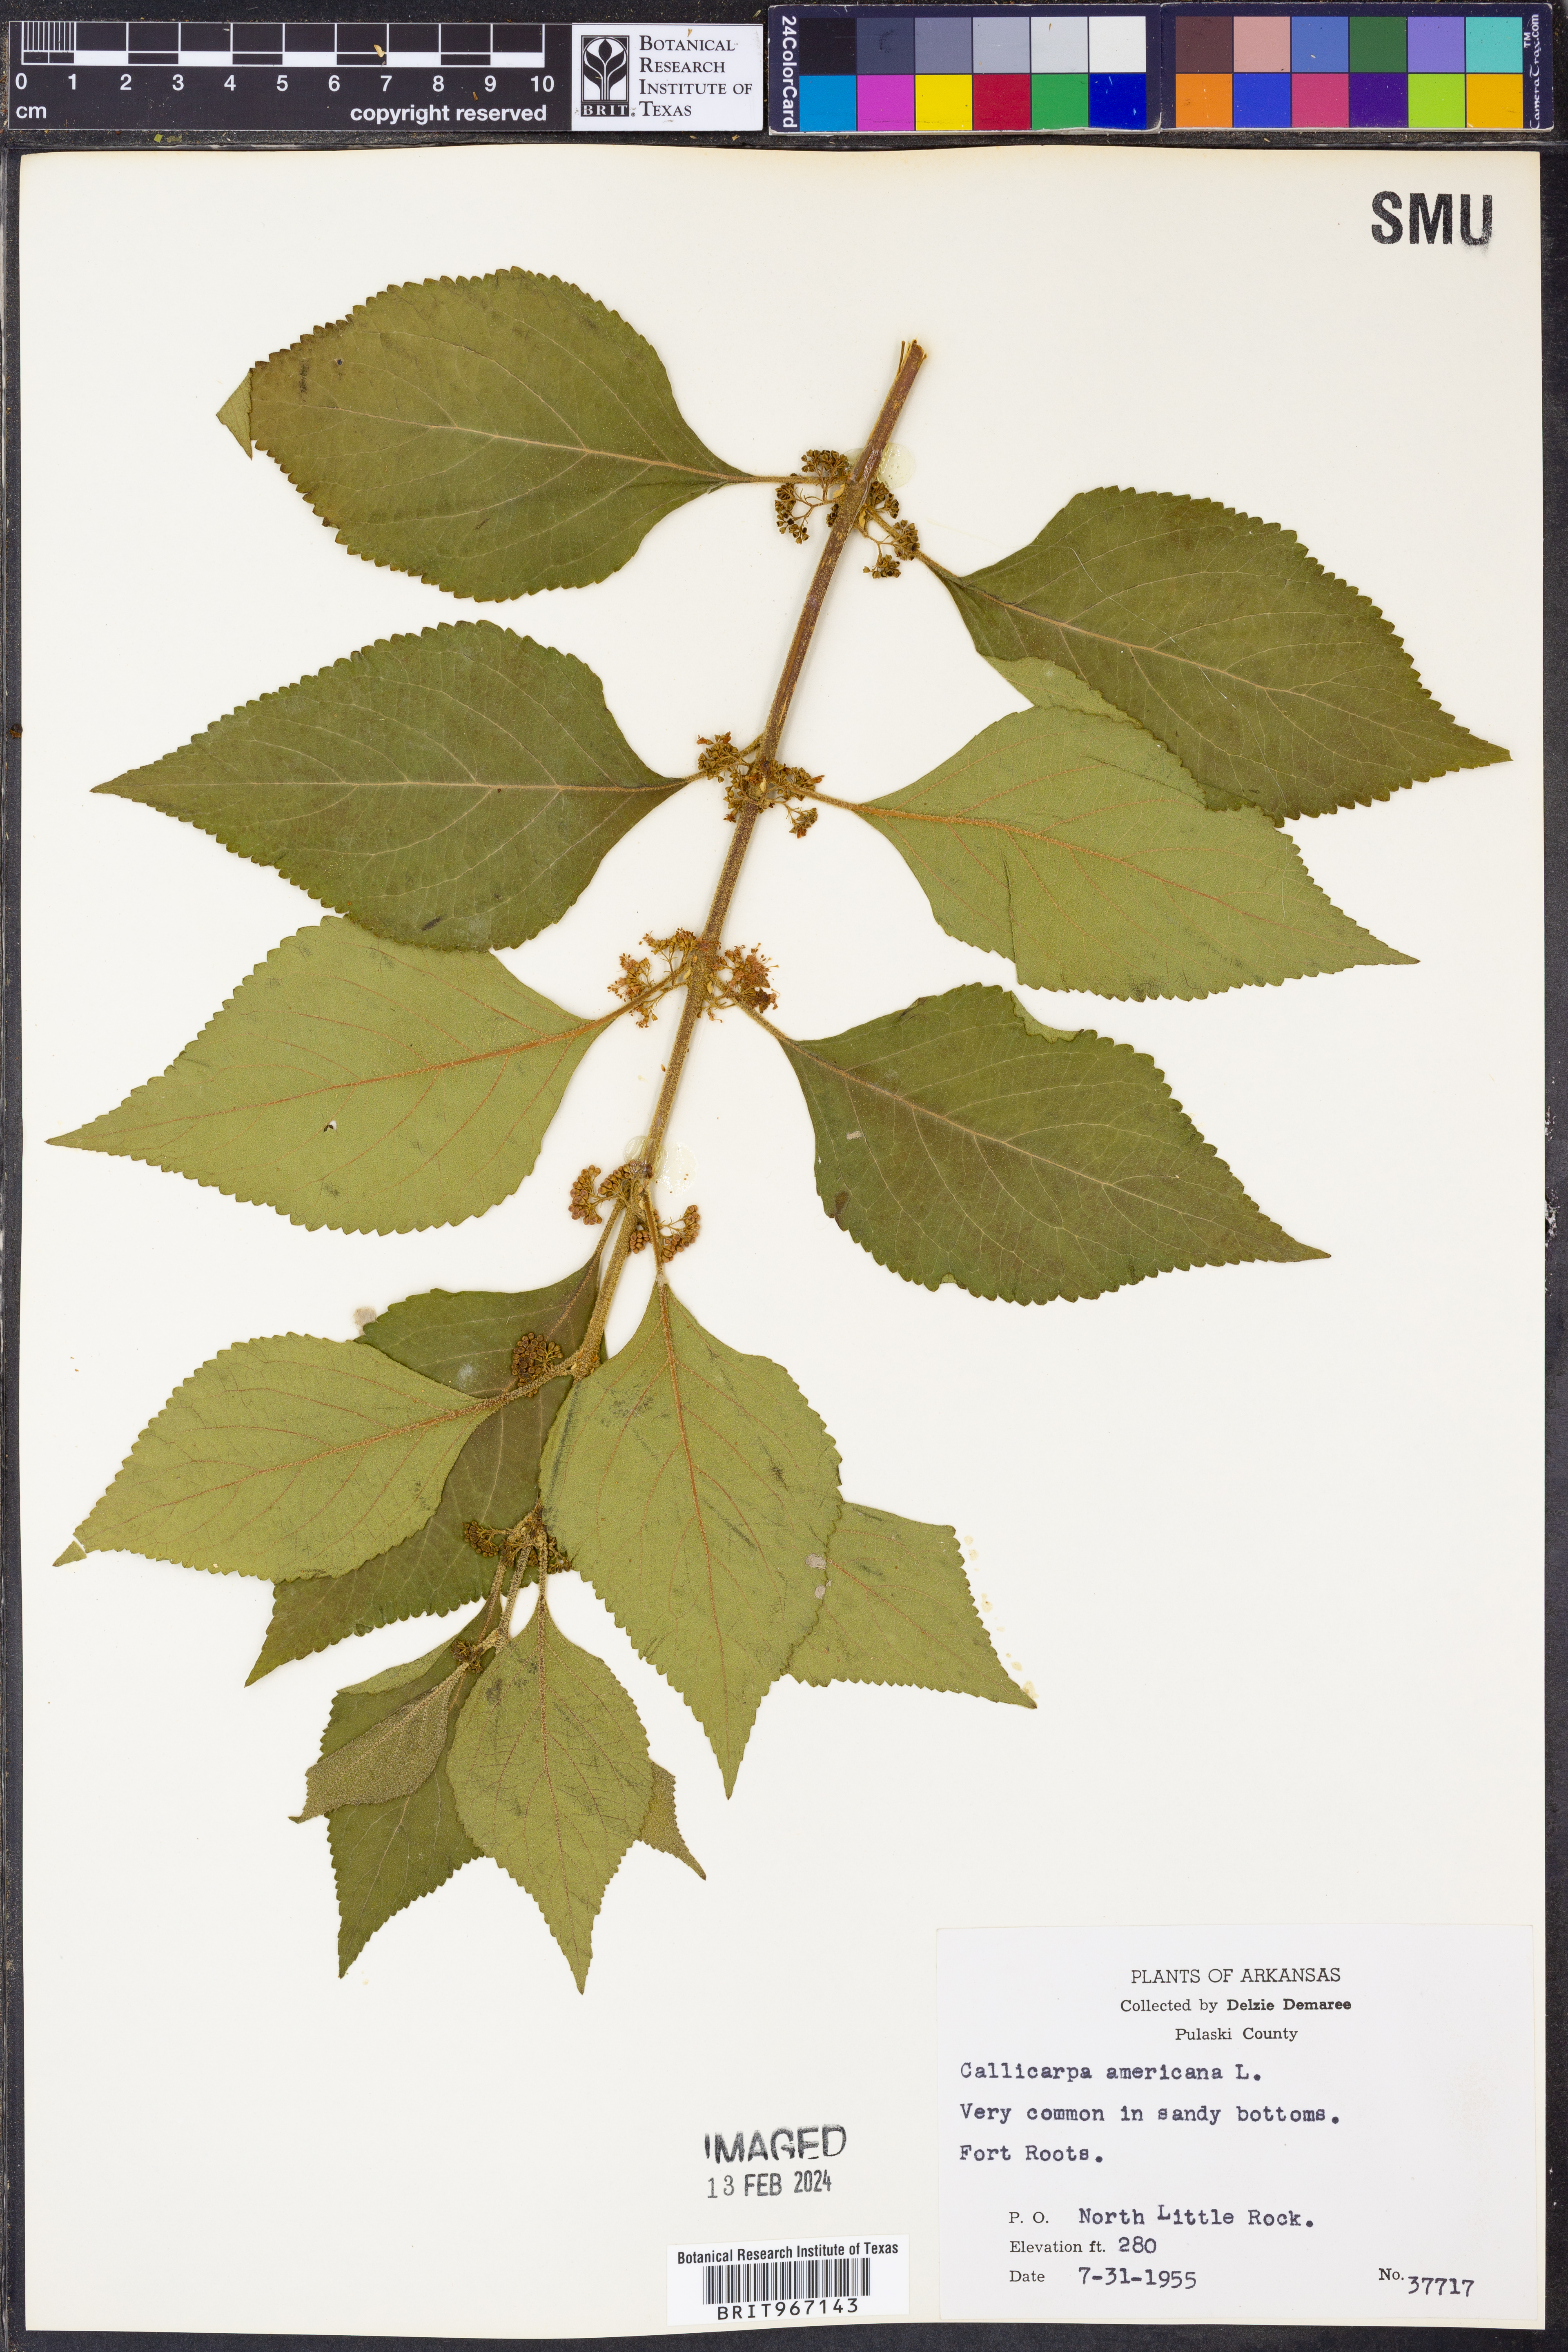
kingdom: Plantae
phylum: Tracheophyta
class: Magnoliopsida
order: Lamiales
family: Lamiaceae
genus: Callicarpa
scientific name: Callicarpa americana
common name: American beautyberry
